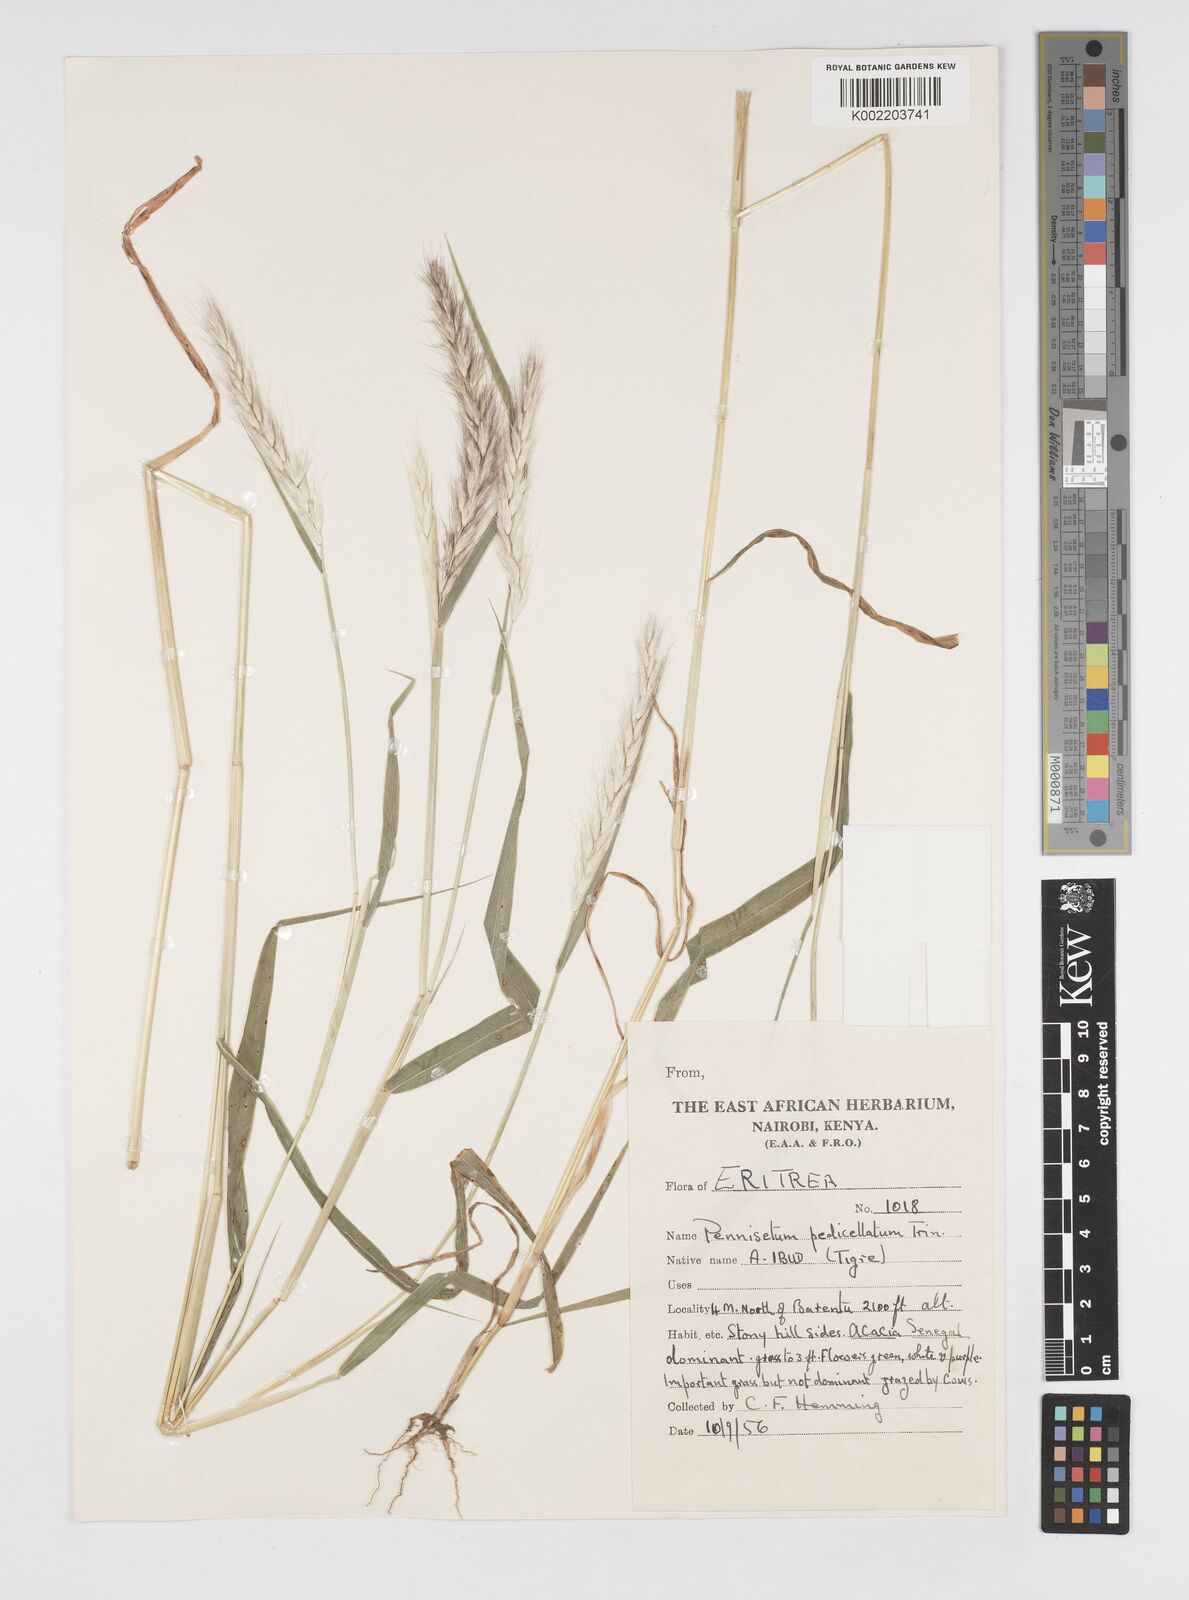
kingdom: Plantae
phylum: Tracheophyta
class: Liliopsida
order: Poales
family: Poaceae
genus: Cenchrus
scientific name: Cenchrus pedicellatus
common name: Hairy fountain grass
